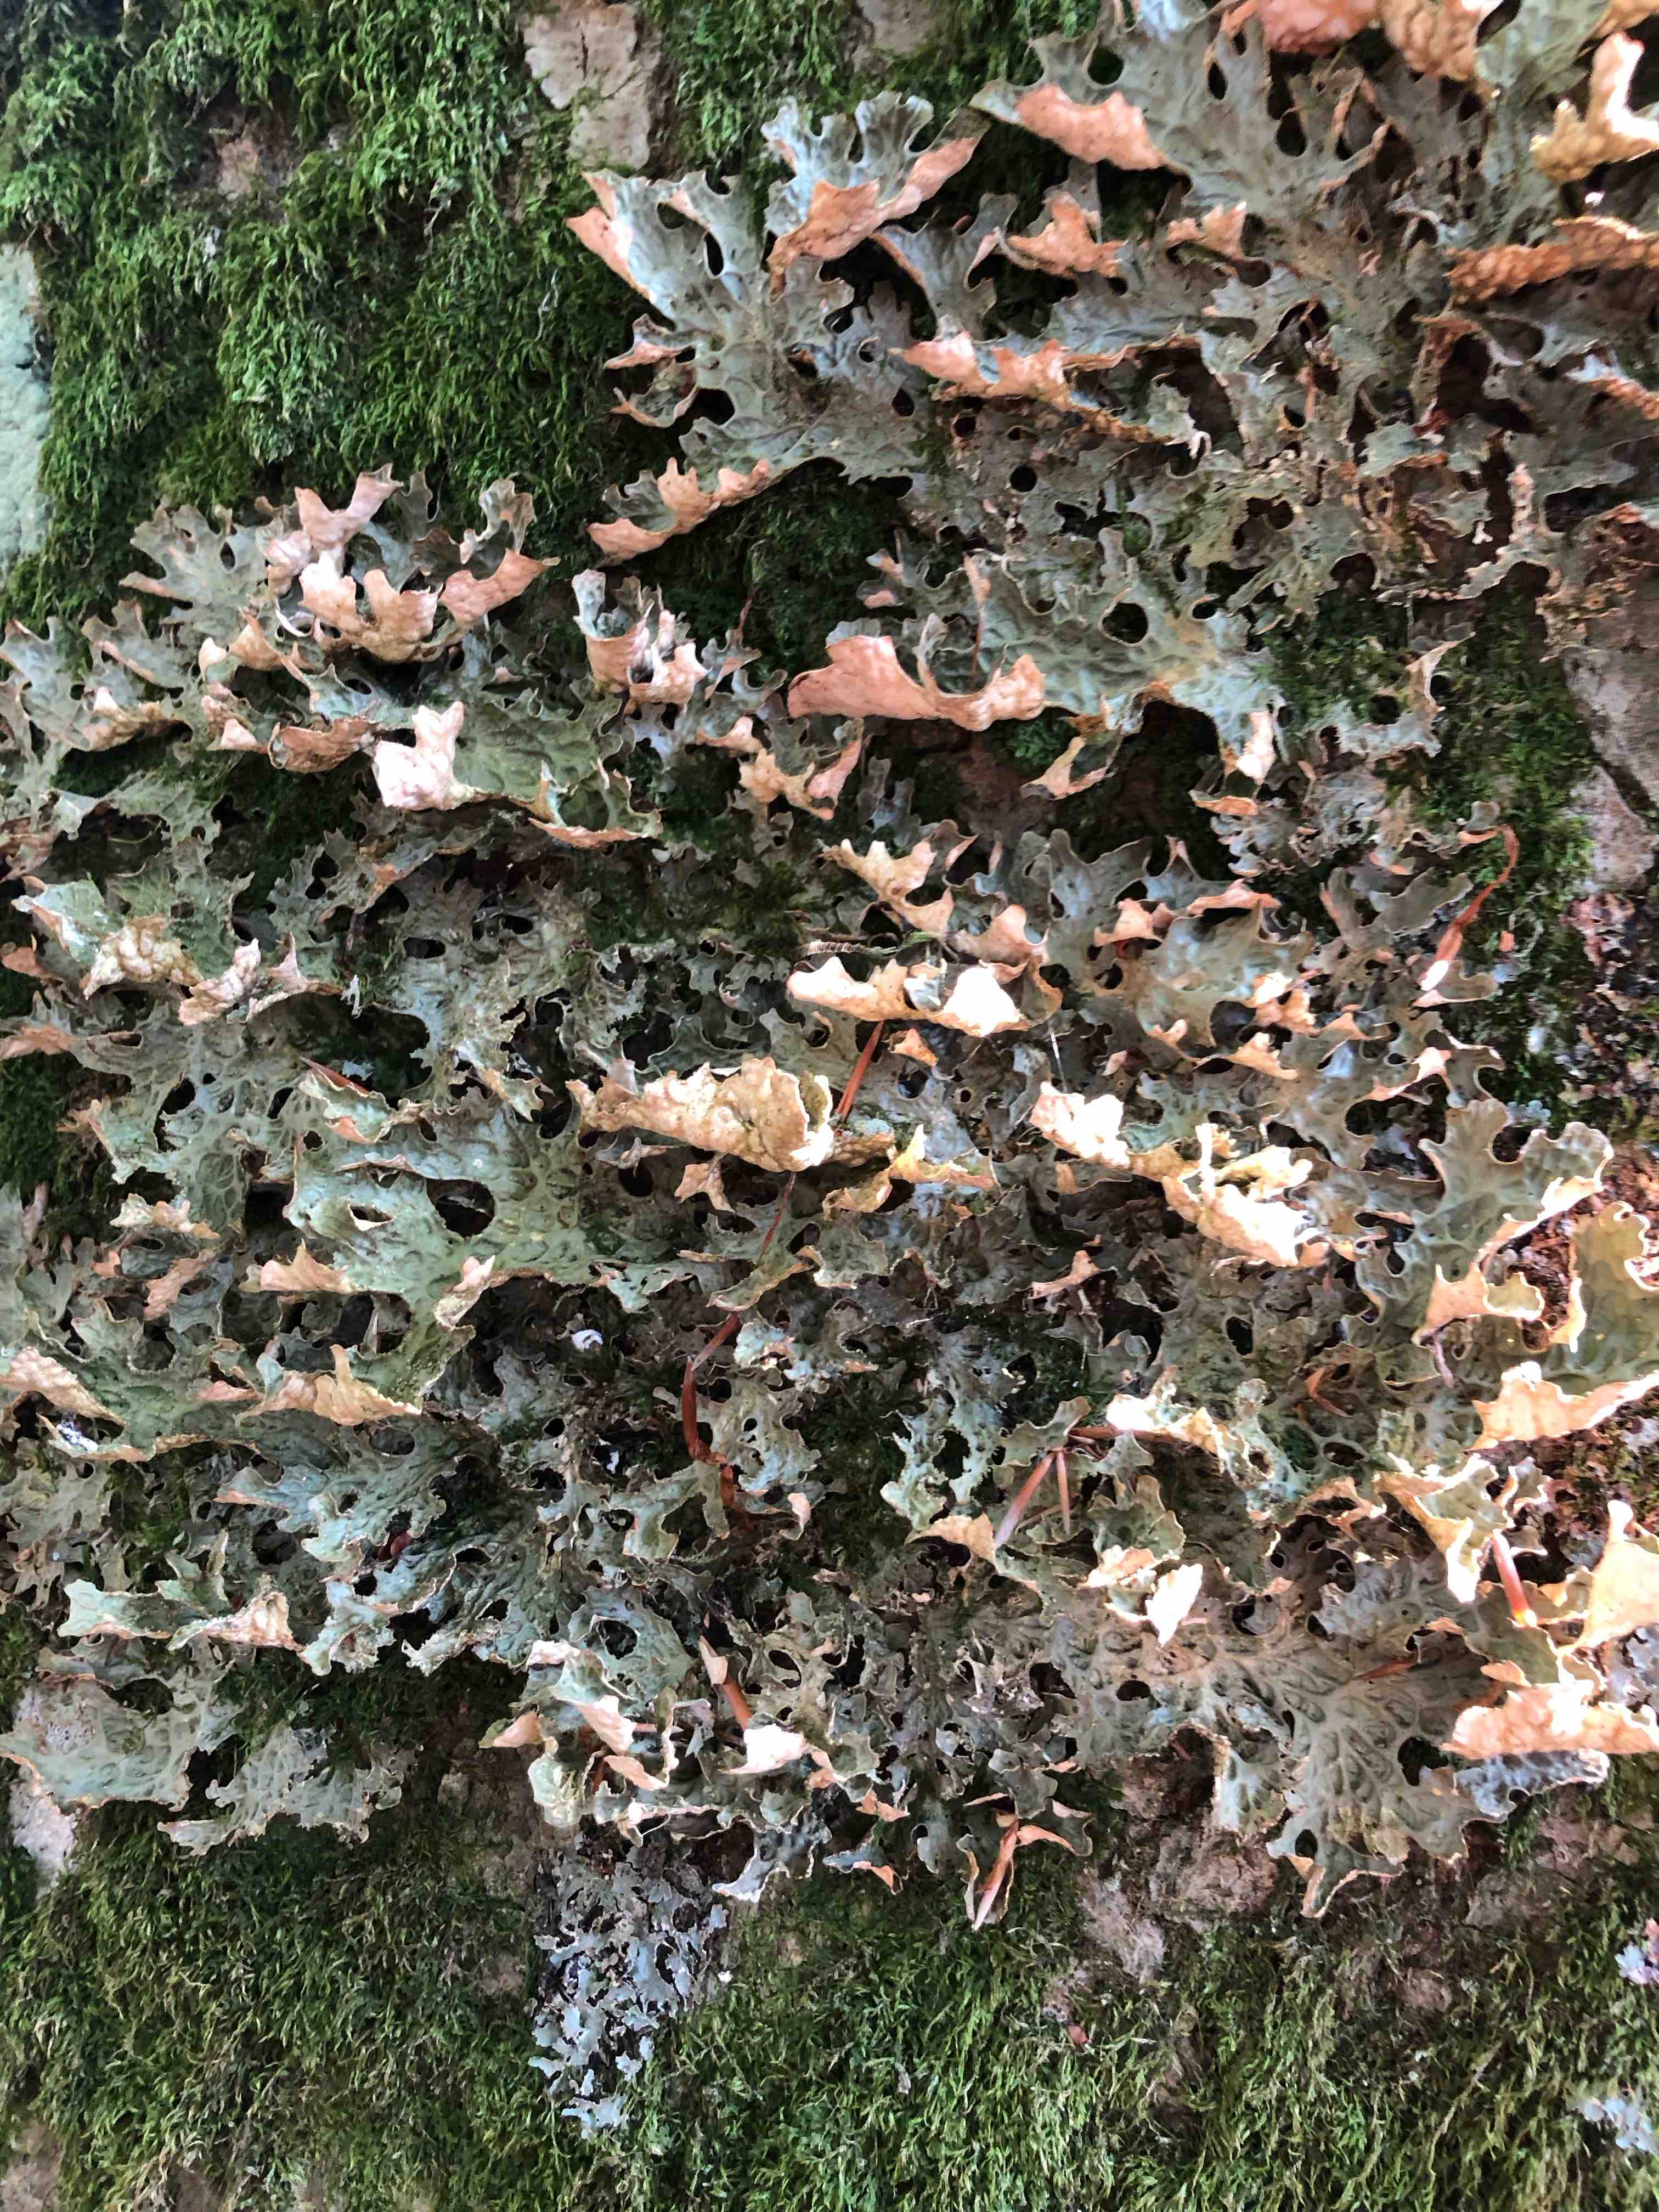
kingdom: Fungi
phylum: Ascomycota
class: Lecanoromycetes
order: Peltigerales
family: Lobariaceae
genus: Lobaria
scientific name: Lobaria pulmonaria
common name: almindelig lungelav
